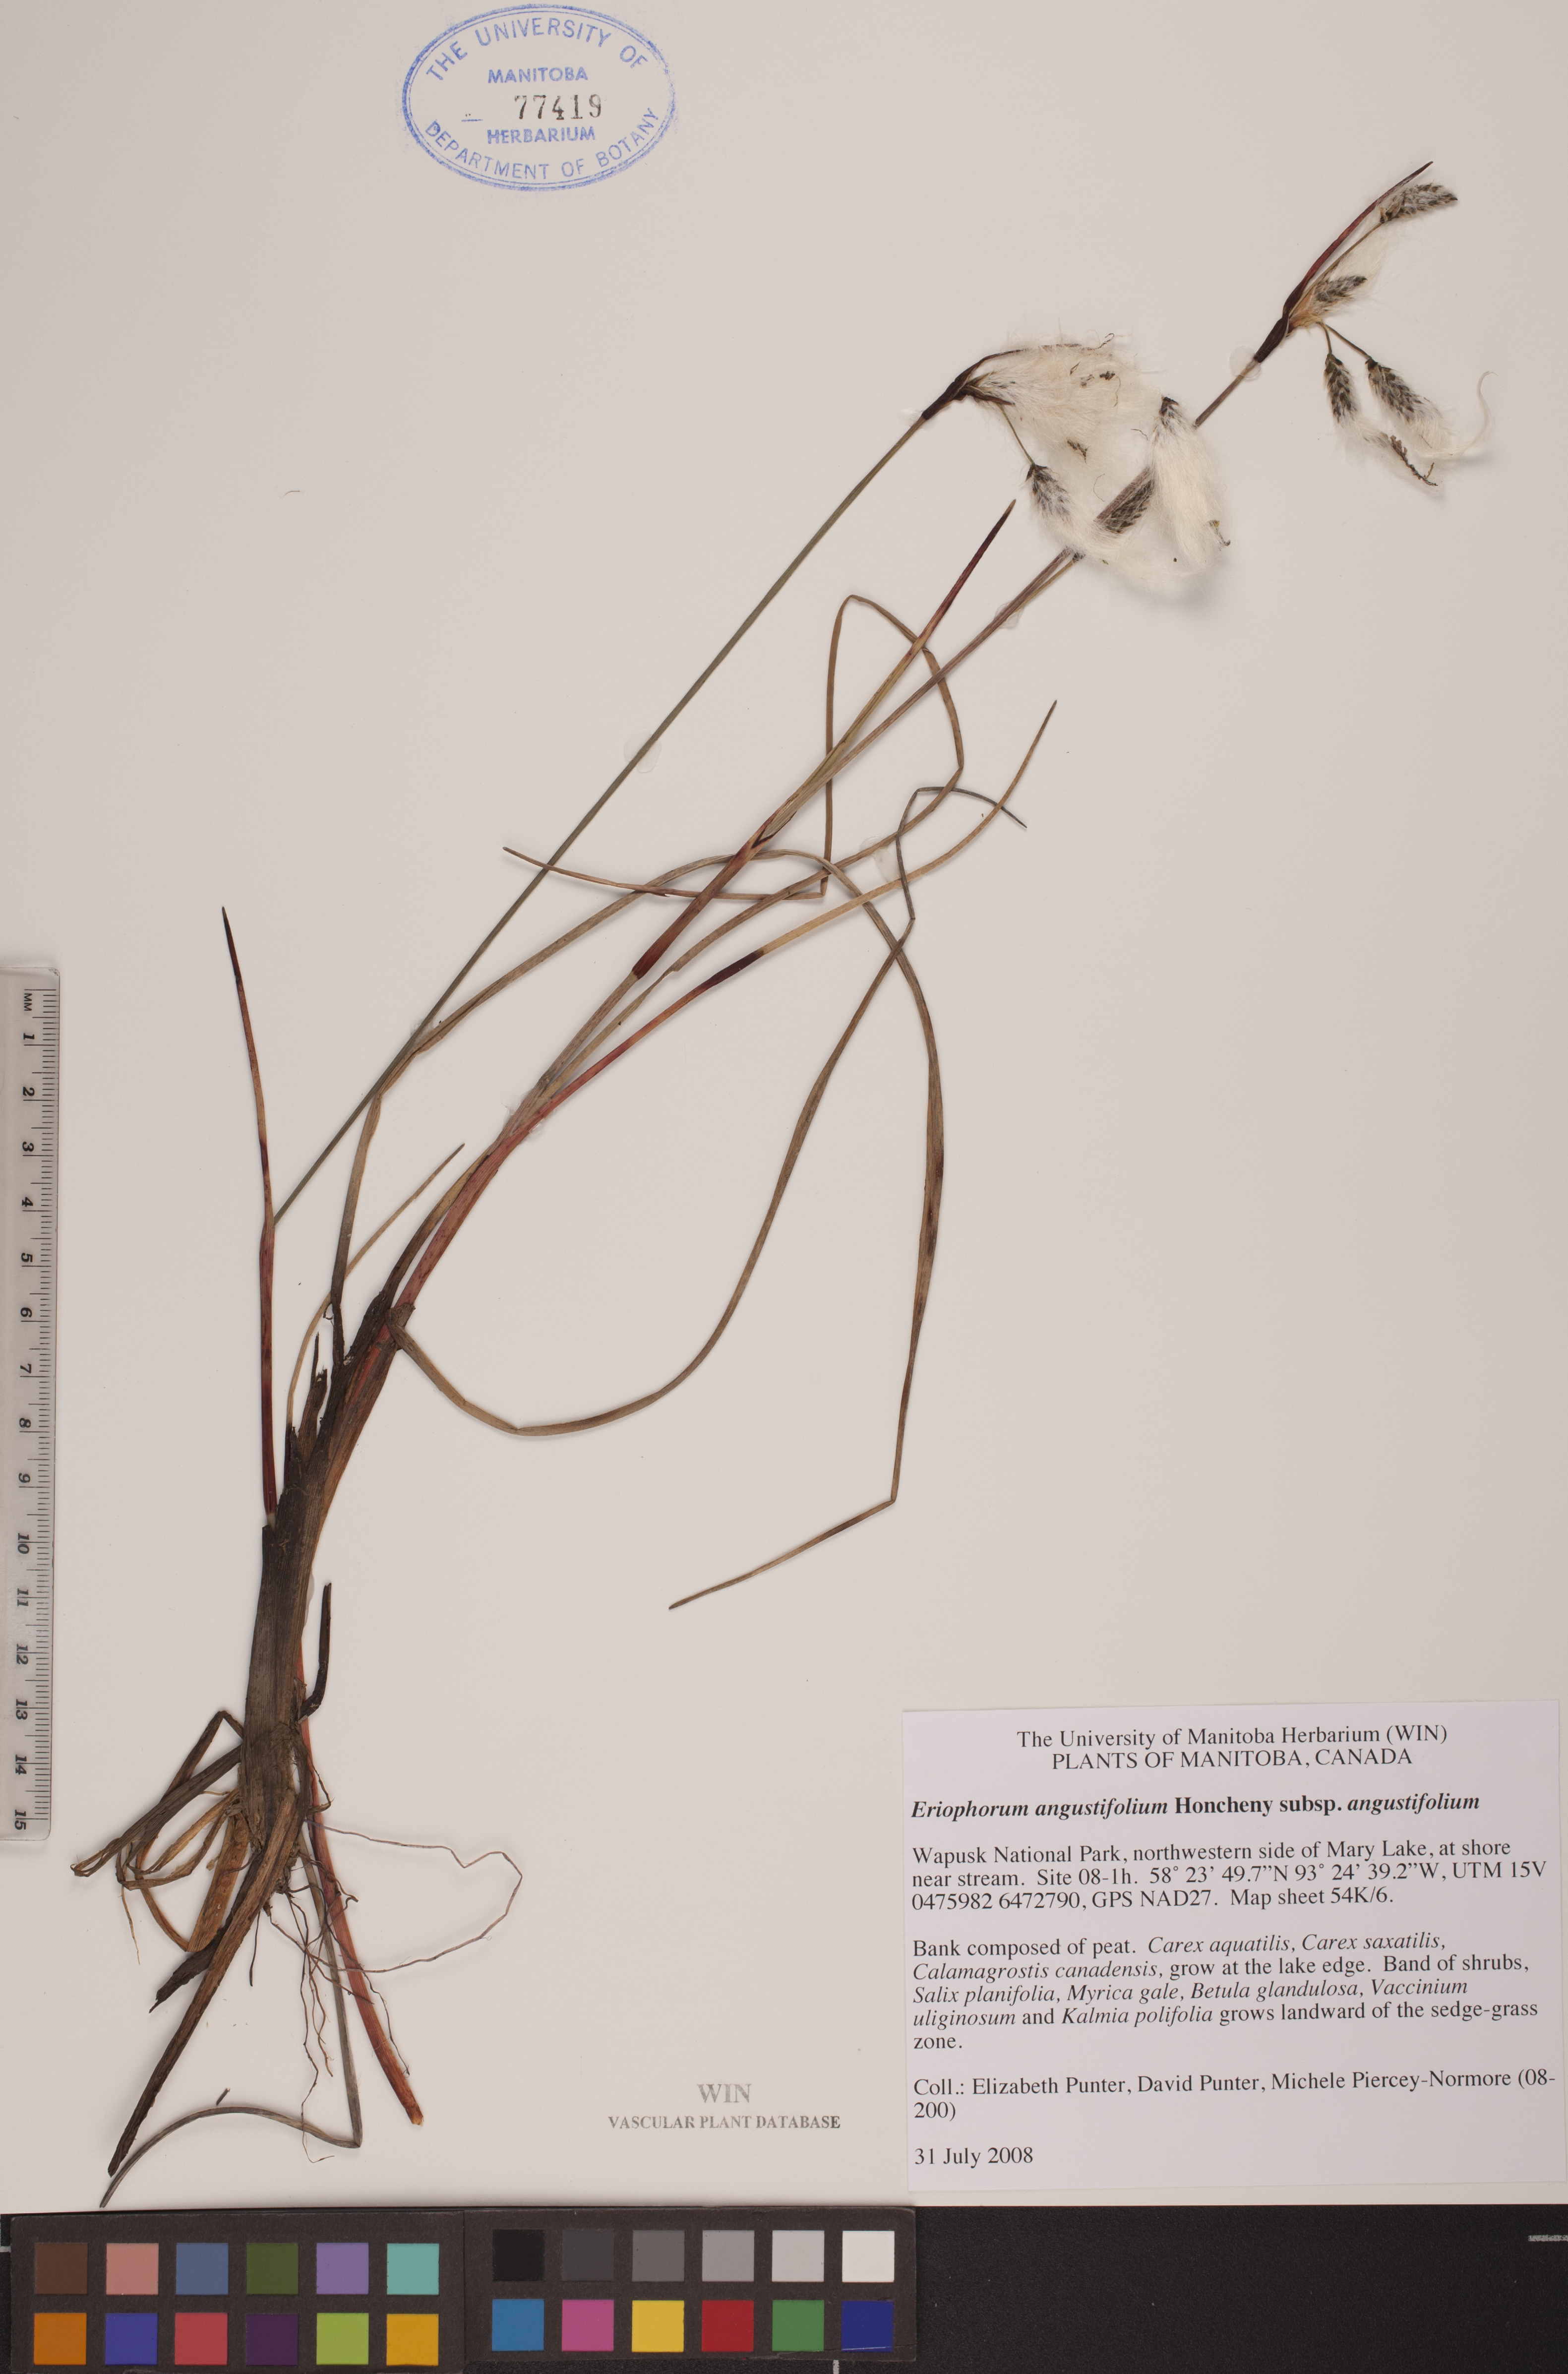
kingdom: Plantae
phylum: Tracheophyta
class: Liliopsida
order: Poales
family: Cyperaceae
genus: Eriophorum
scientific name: Eriophorum angustifolium
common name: Common cottongrass
